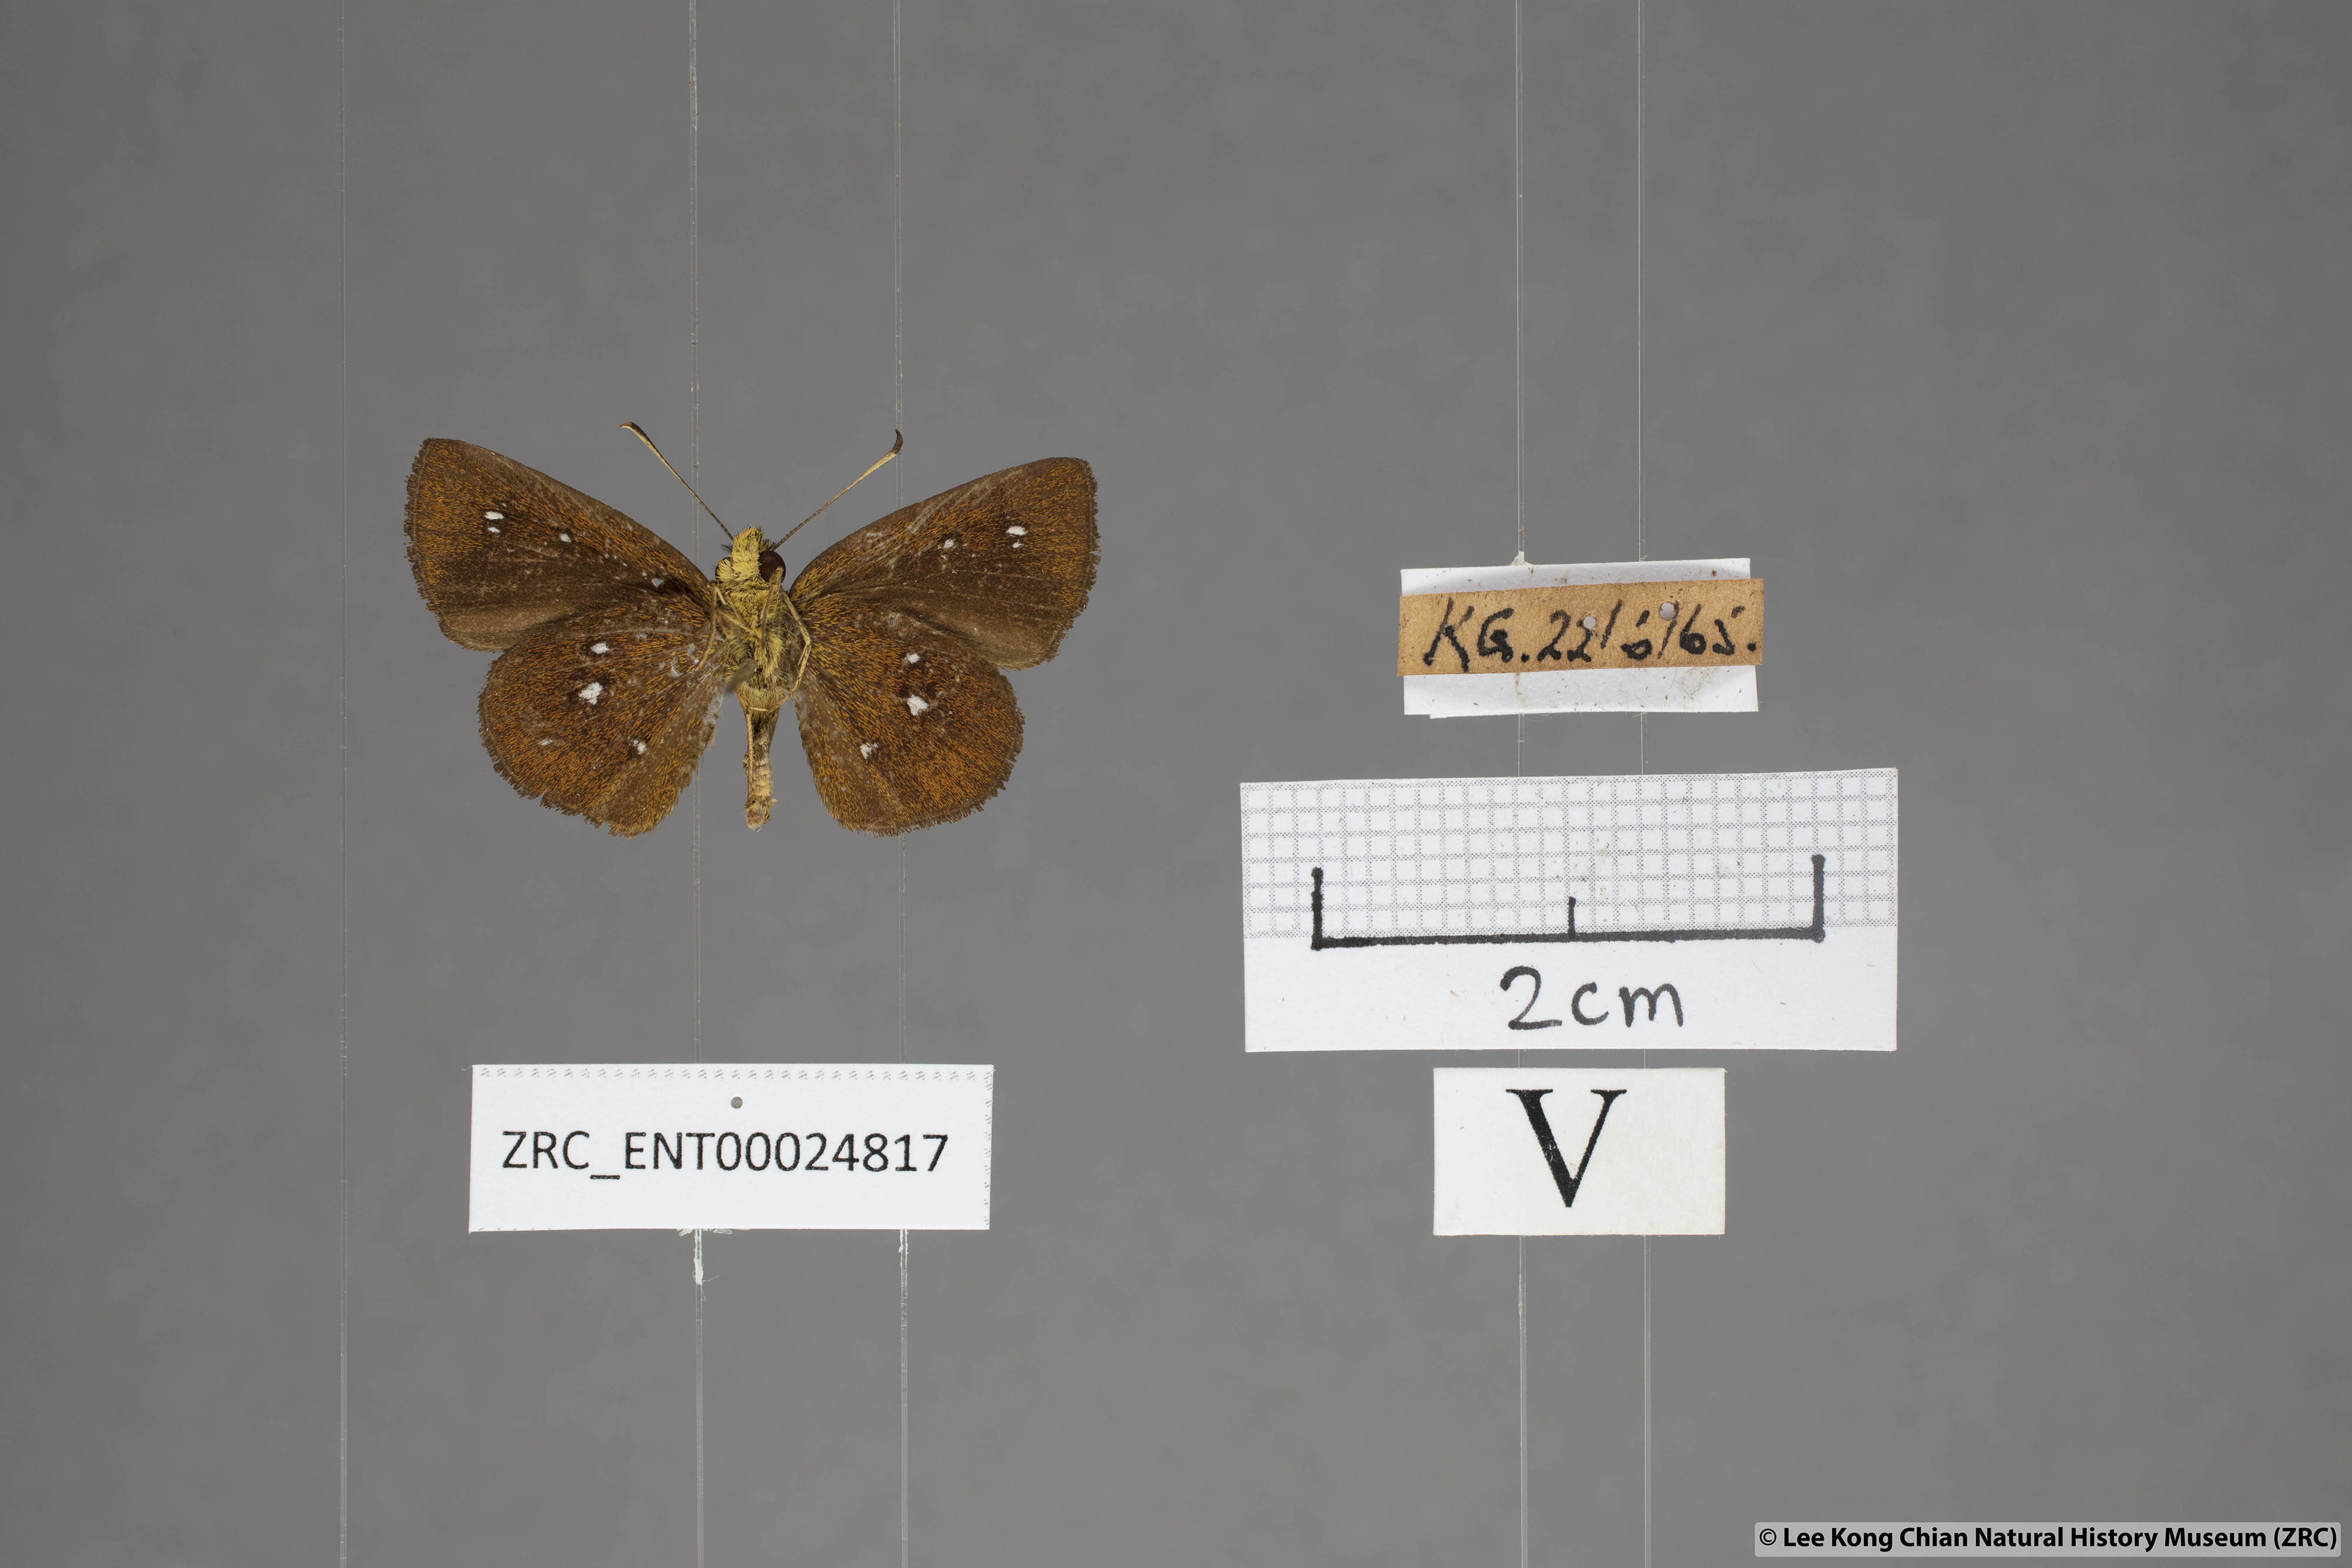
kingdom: Animalia
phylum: Arthropoda
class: Insecta
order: Lepidoptera
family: Hesperiidae
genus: Iambrix
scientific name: Iambrix salsala
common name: Chestnut bob
